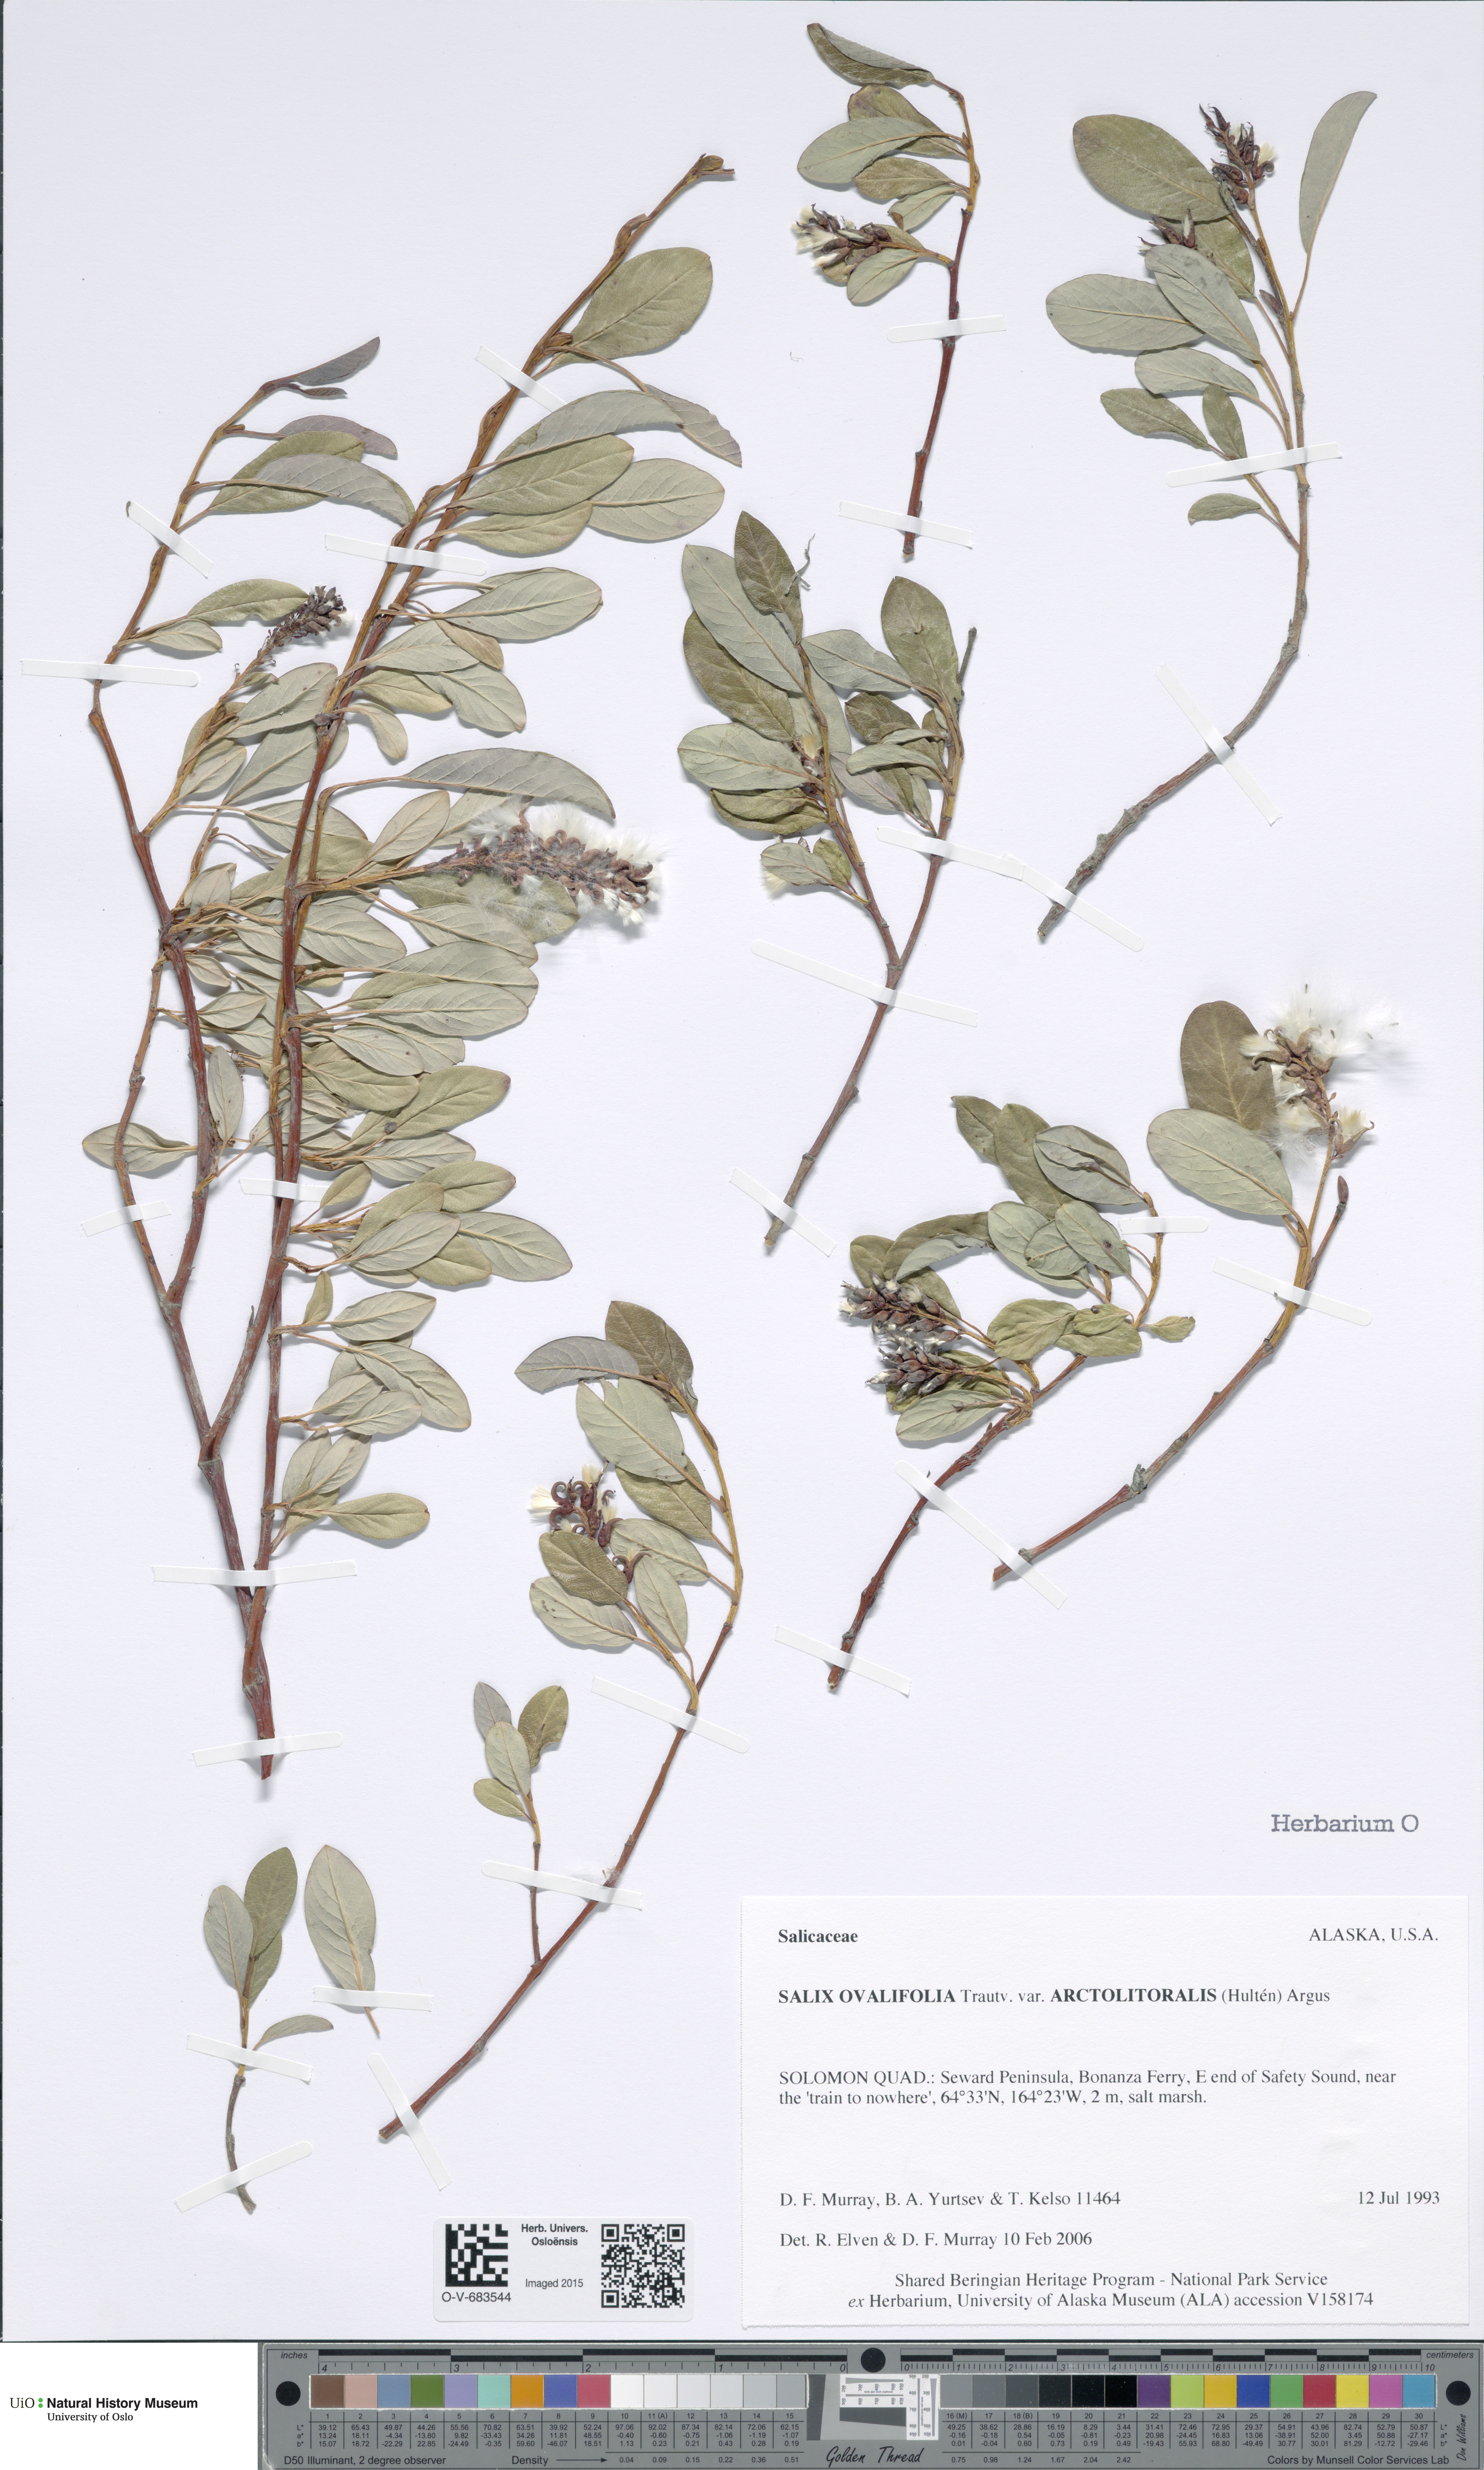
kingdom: Plantae
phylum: Tracheophyta
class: Magnoliopsida
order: Malpighiales
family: Salicaceae
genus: Salix
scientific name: Salix ovalifolia
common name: Arctic seashore willow
